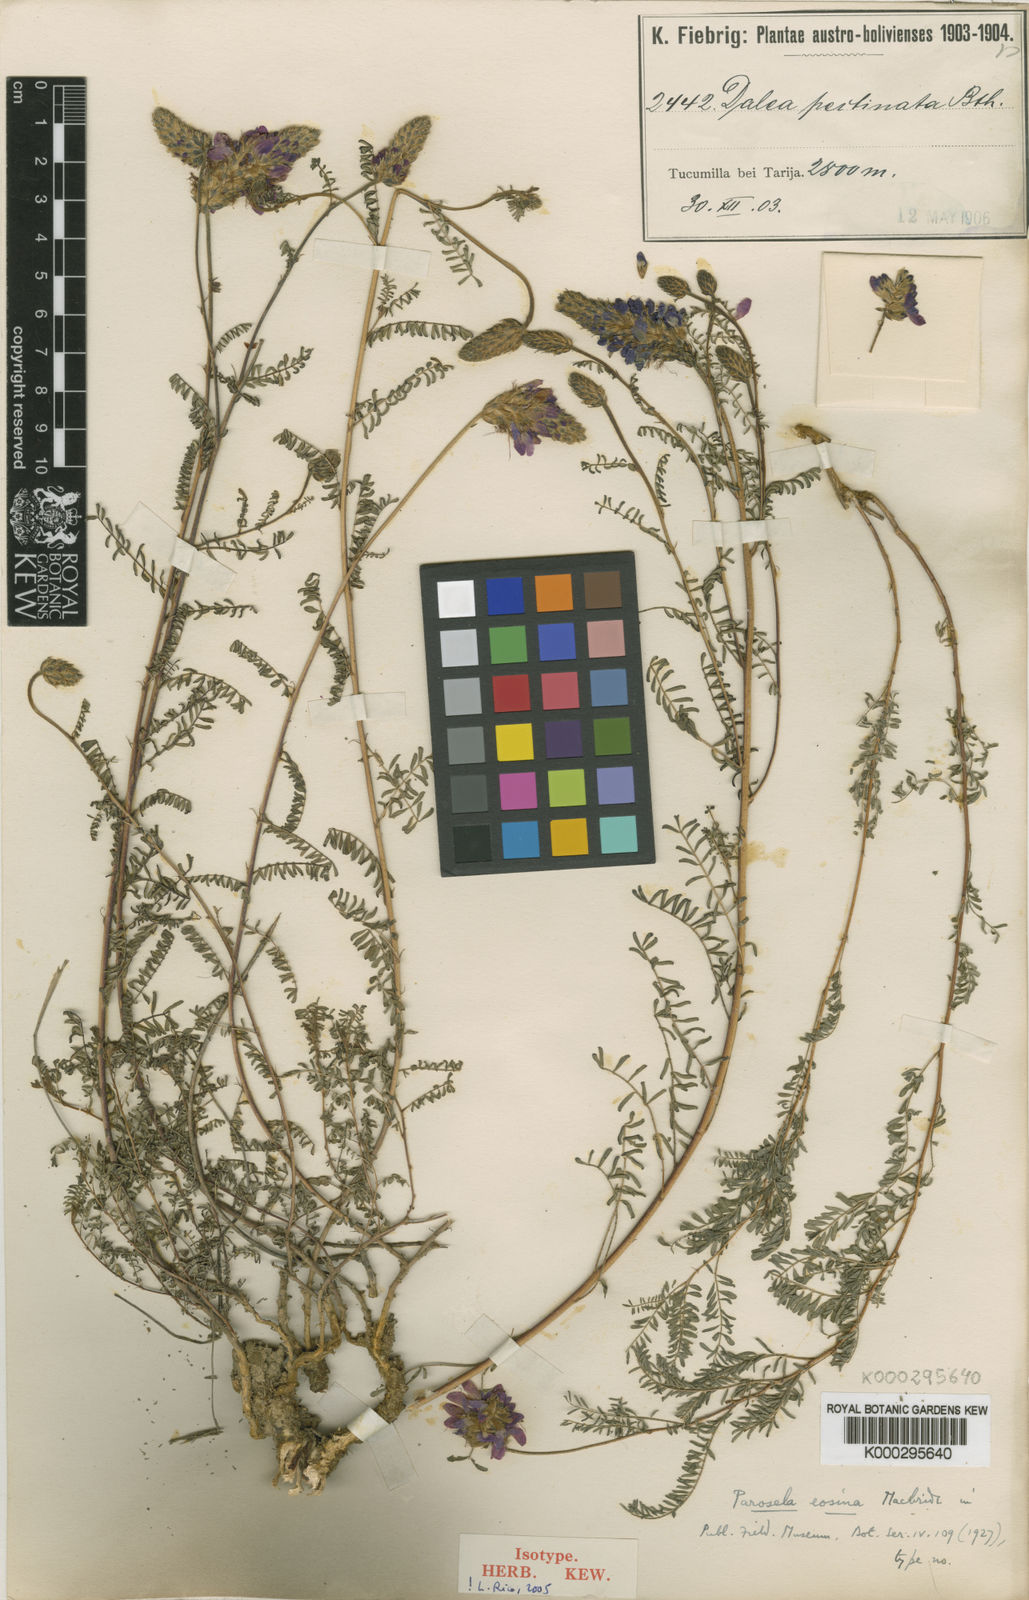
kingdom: Plantae
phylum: Tracheophyta
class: Magnoliopsida
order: Fabales
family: Fabaceae
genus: Dalea
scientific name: Dalea elegans
